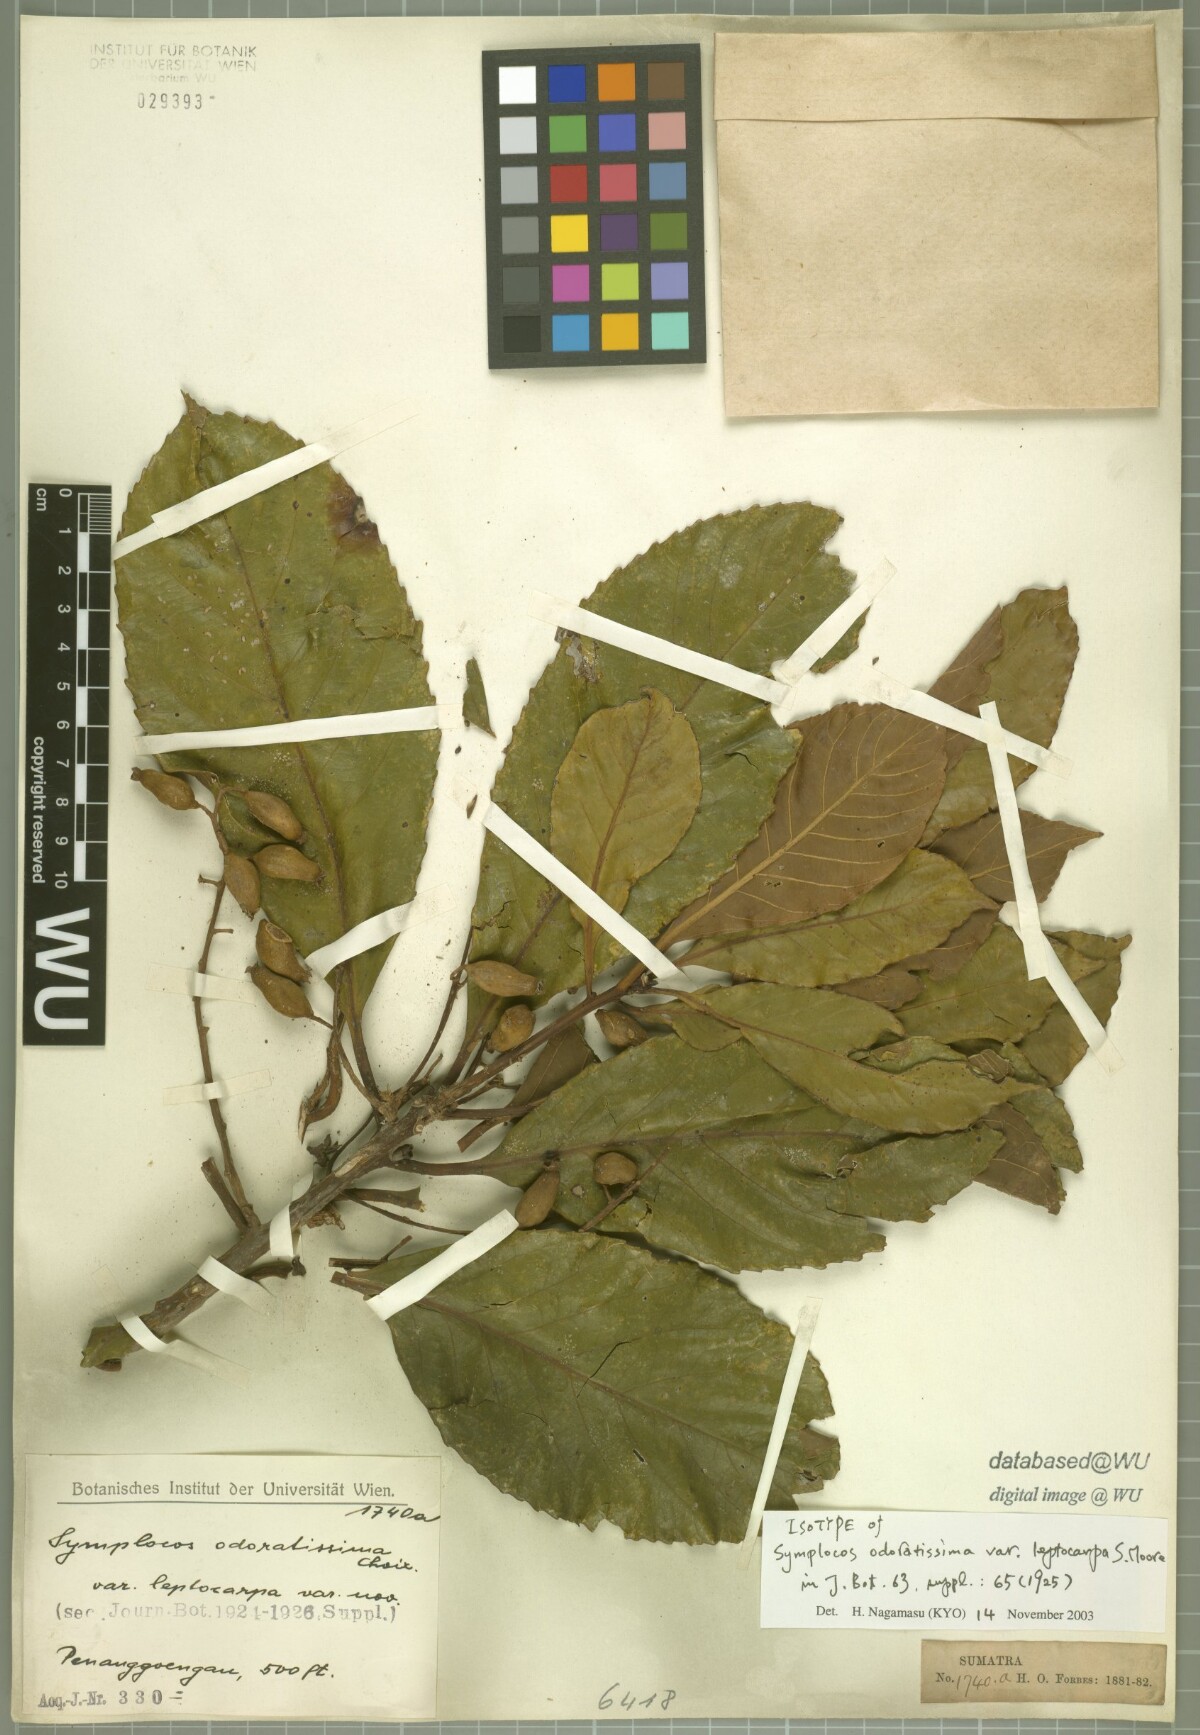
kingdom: Plantae
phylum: Tracheophyta
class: Magnoliopsida
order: Ericales
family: Symplocaceae
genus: Symplocos
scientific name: Symplocos odoratissima
